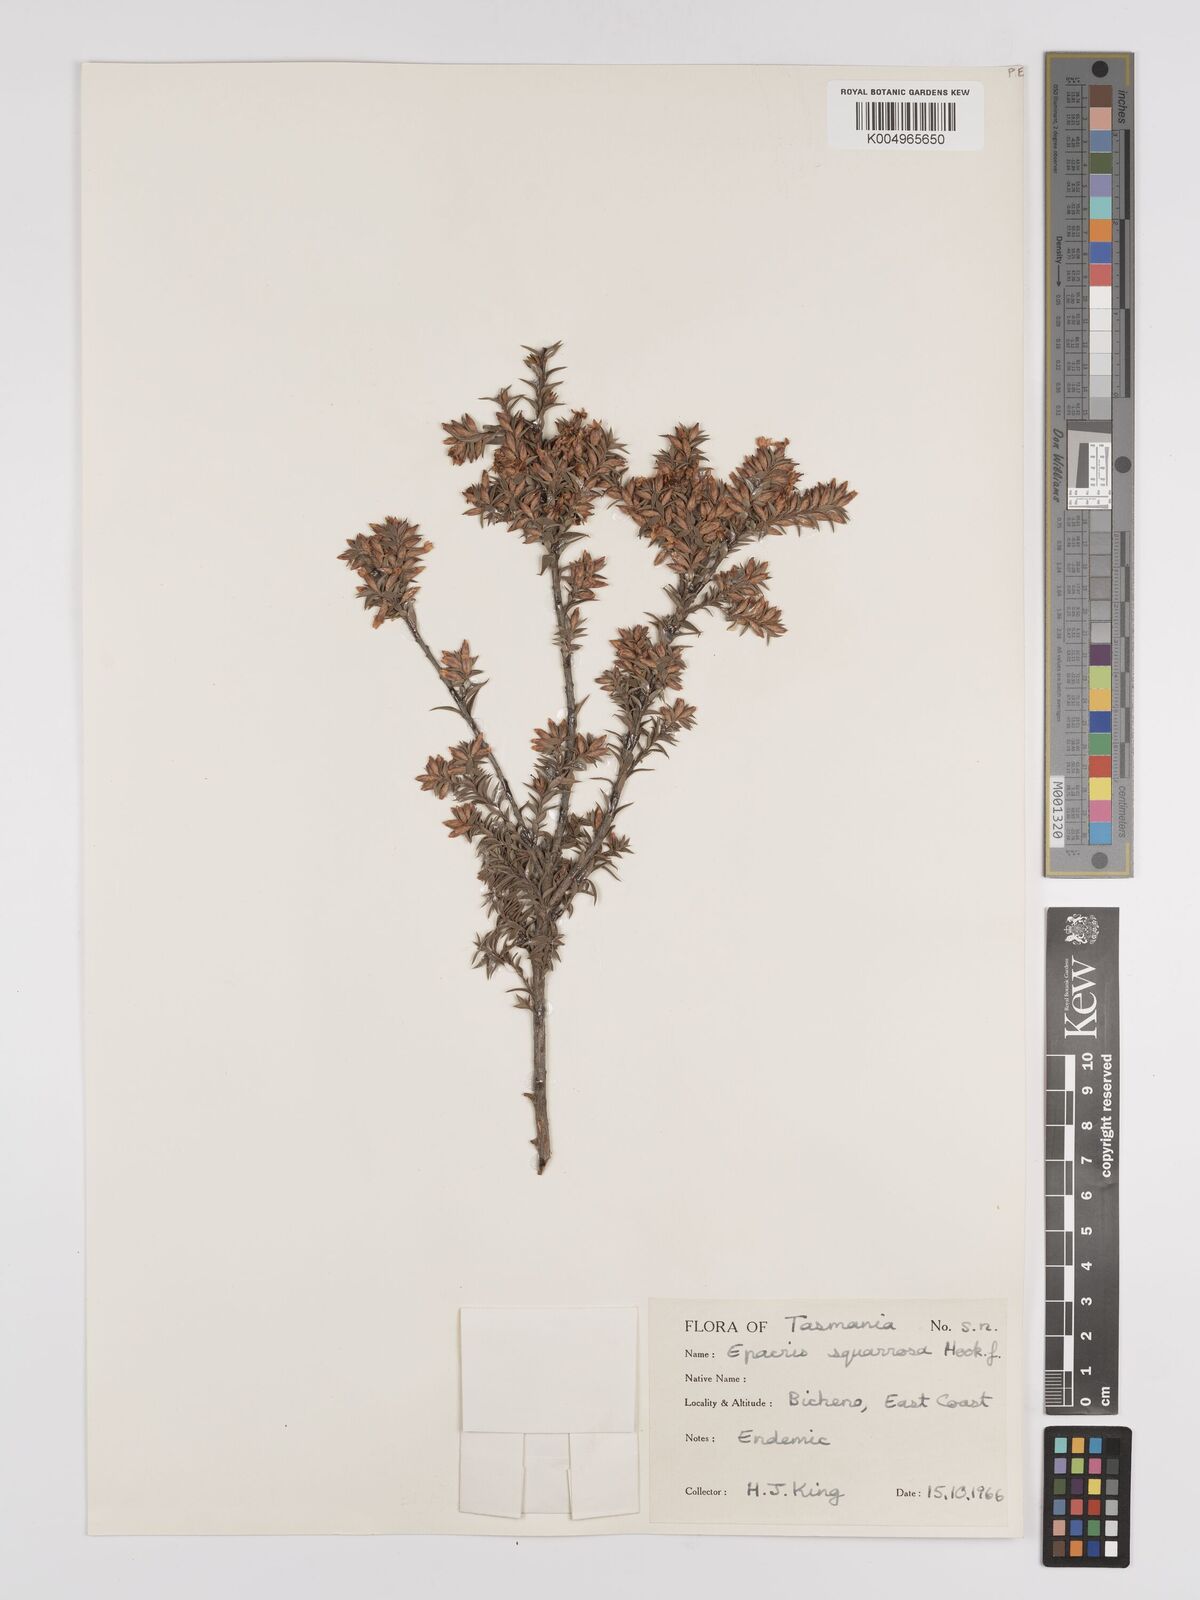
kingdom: Plantae
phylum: Tracheophyta
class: Magnoliopsida
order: Ericales
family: Ericaceae
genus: Epacris
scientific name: Epacris tasmanica
